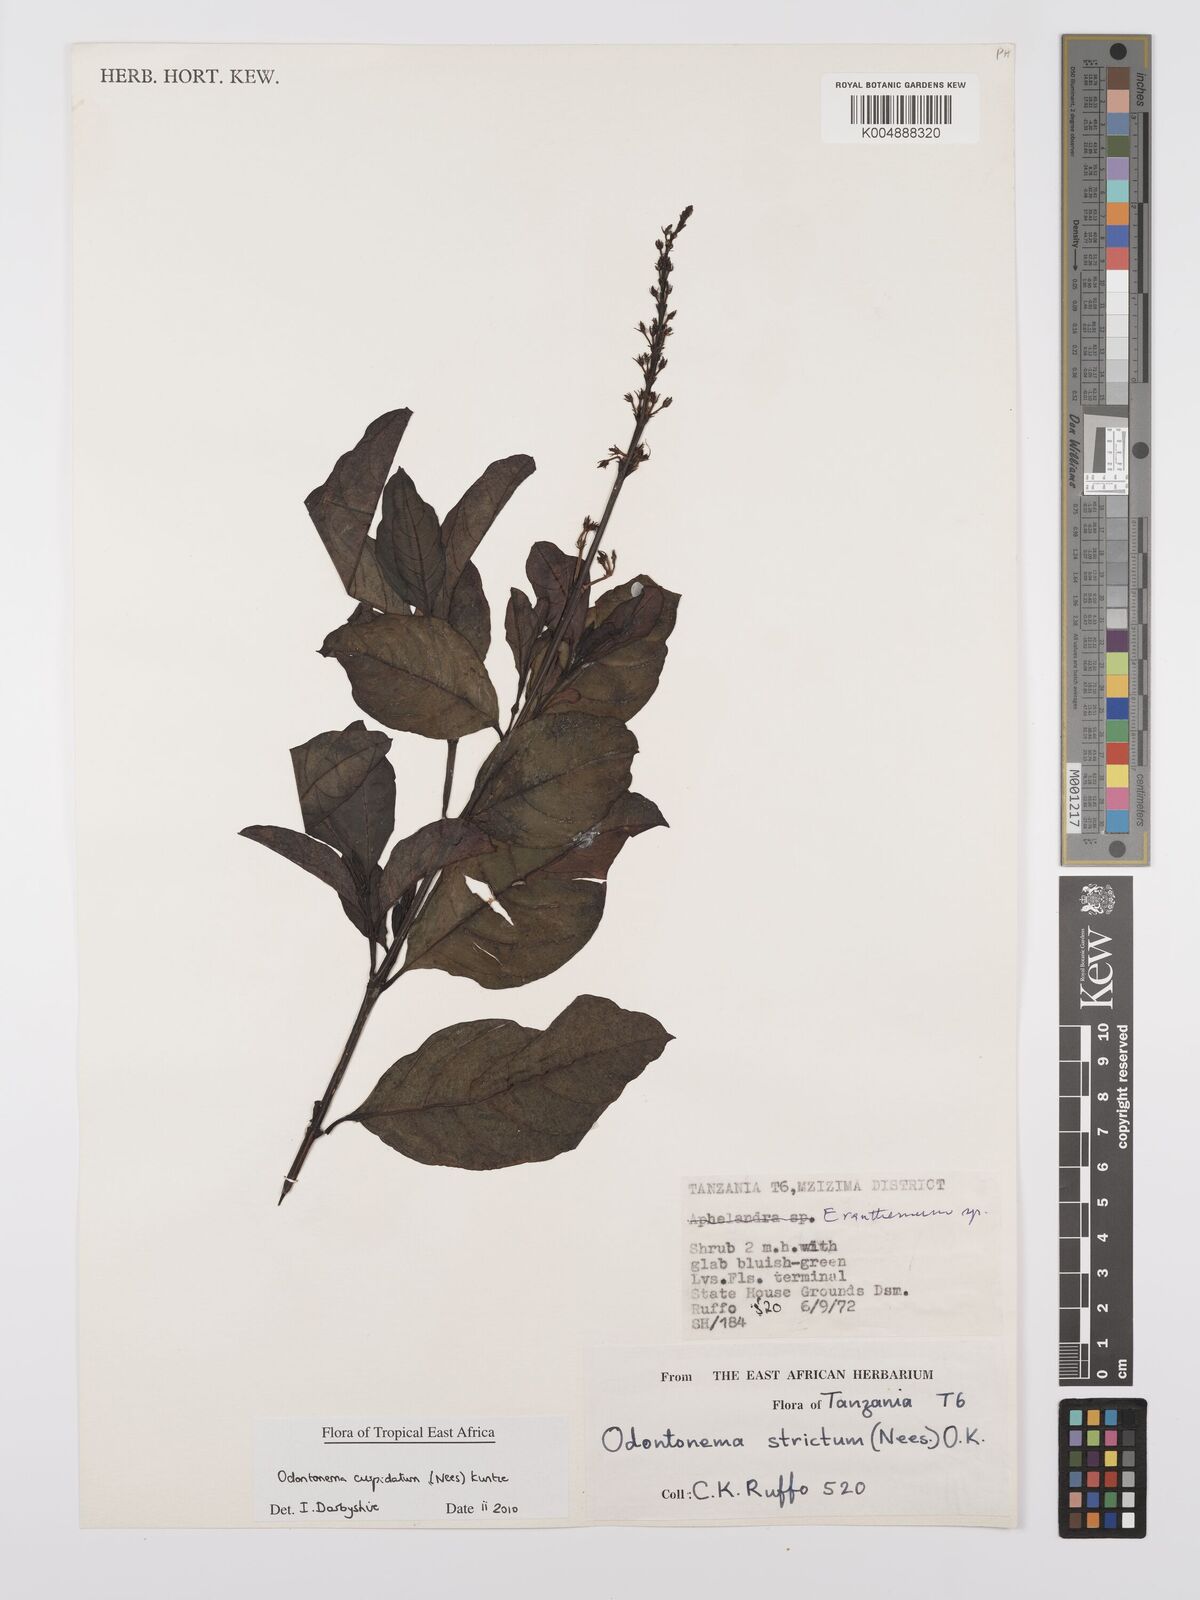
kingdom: Plantae
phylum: Tracheophyta
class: Magnoliopsida
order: Lamiales
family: Acanthaceae
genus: Odontonema
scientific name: Odontonema cuspidatum
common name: Mottled toothedthread
